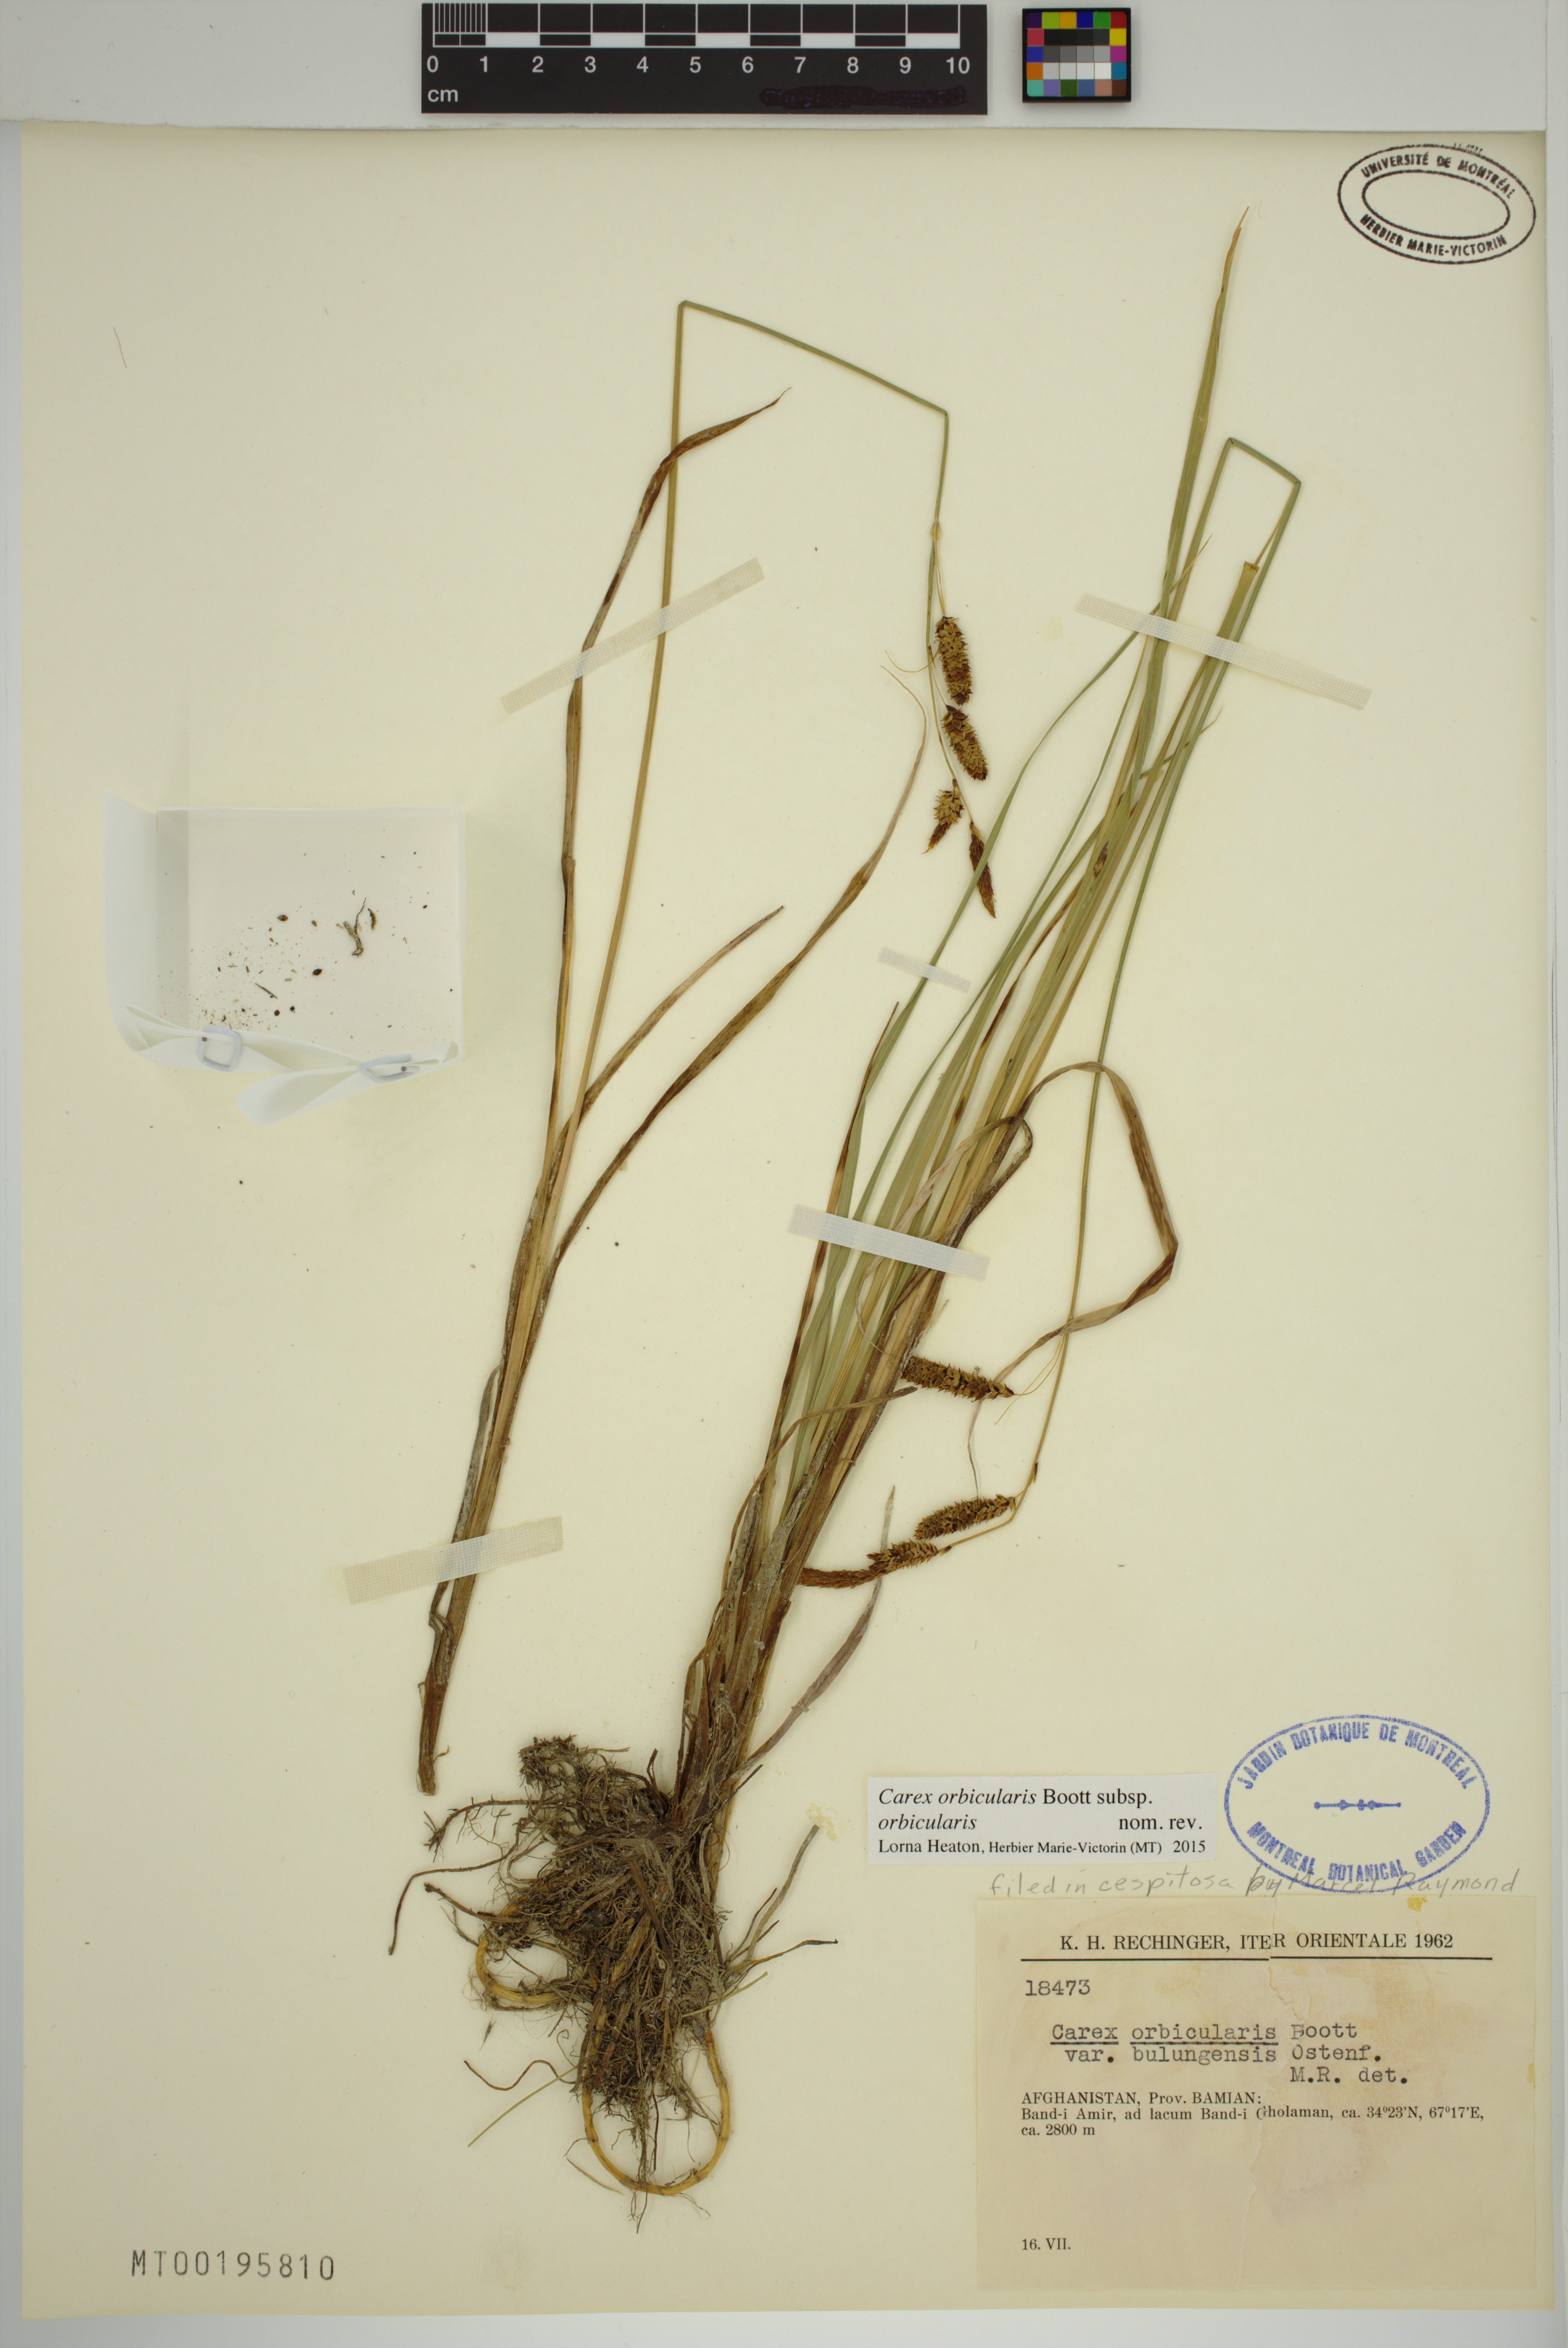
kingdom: Plantae
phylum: Tracheophyta
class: Liliopsida
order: Poales
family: Cyperaceae
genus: Carex
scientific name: Carex orbicularis
